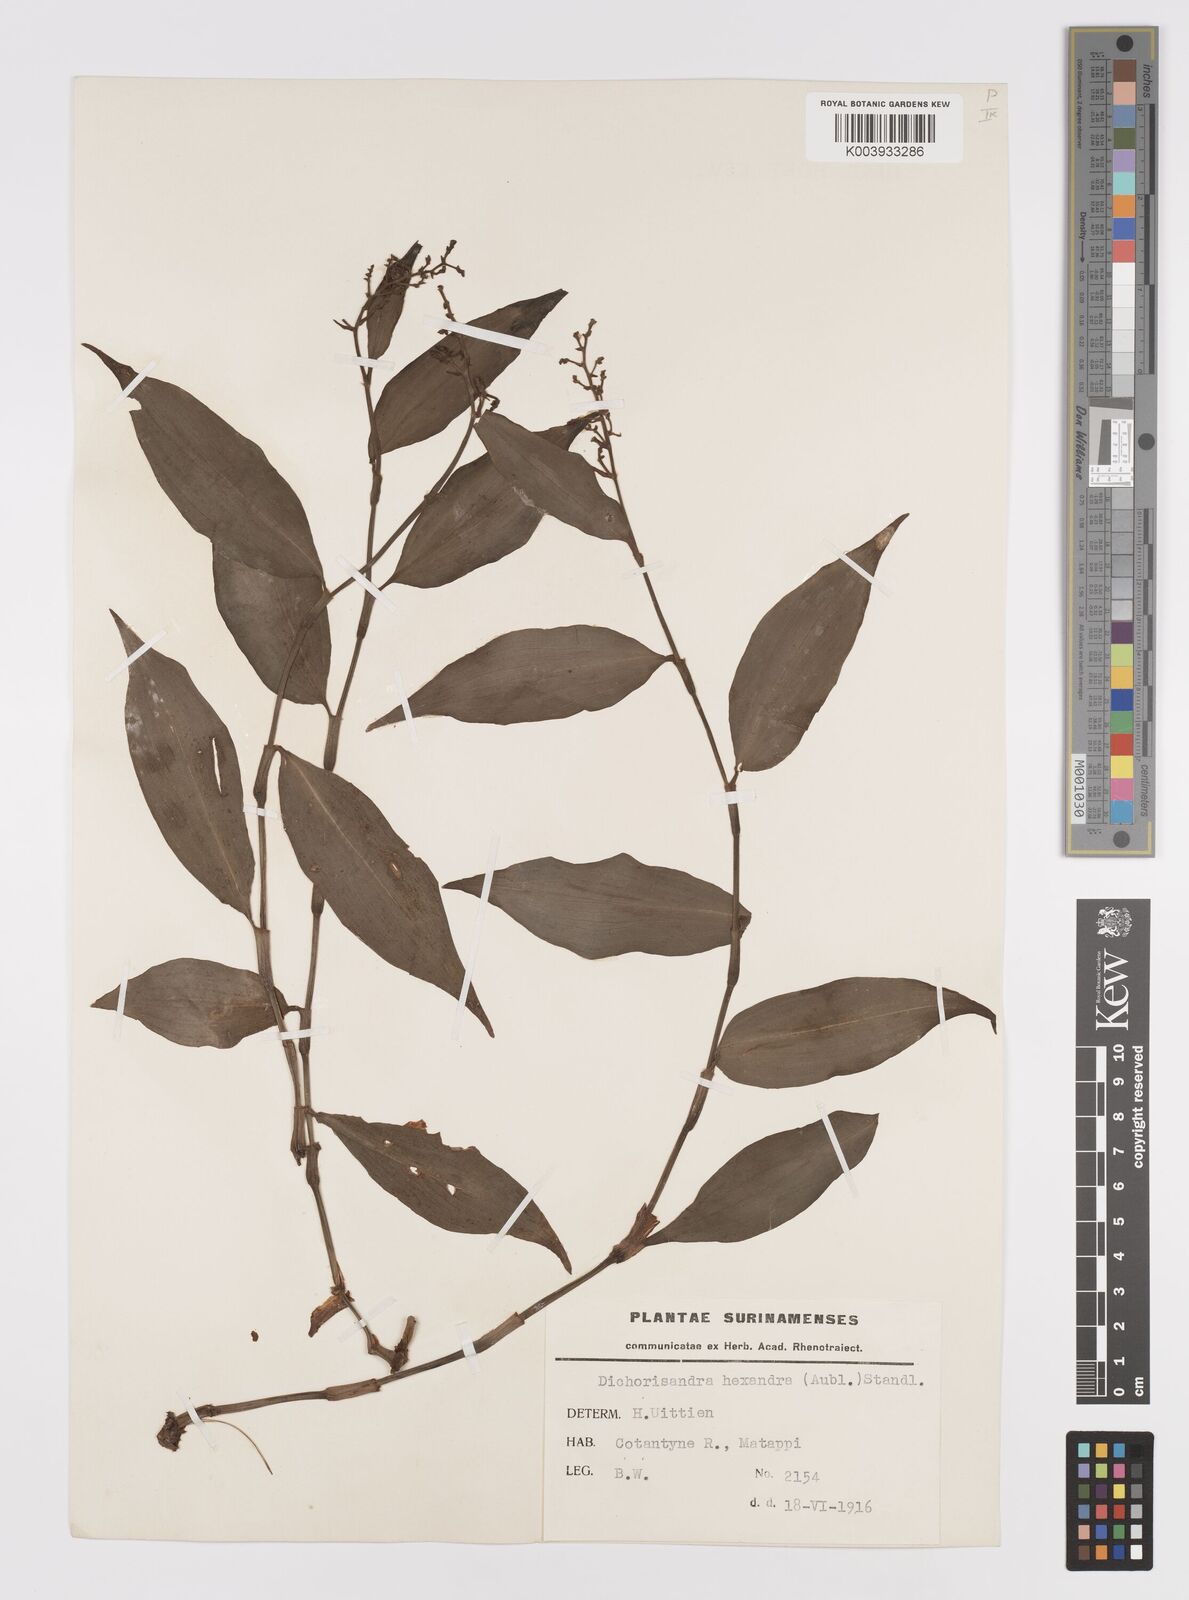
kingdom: Plantae
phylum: Tracheophyta
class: Liliopsida
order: Commelinales
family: Commelinaceae
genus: Dichorisandra
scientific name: Dichorisandra hexandra
